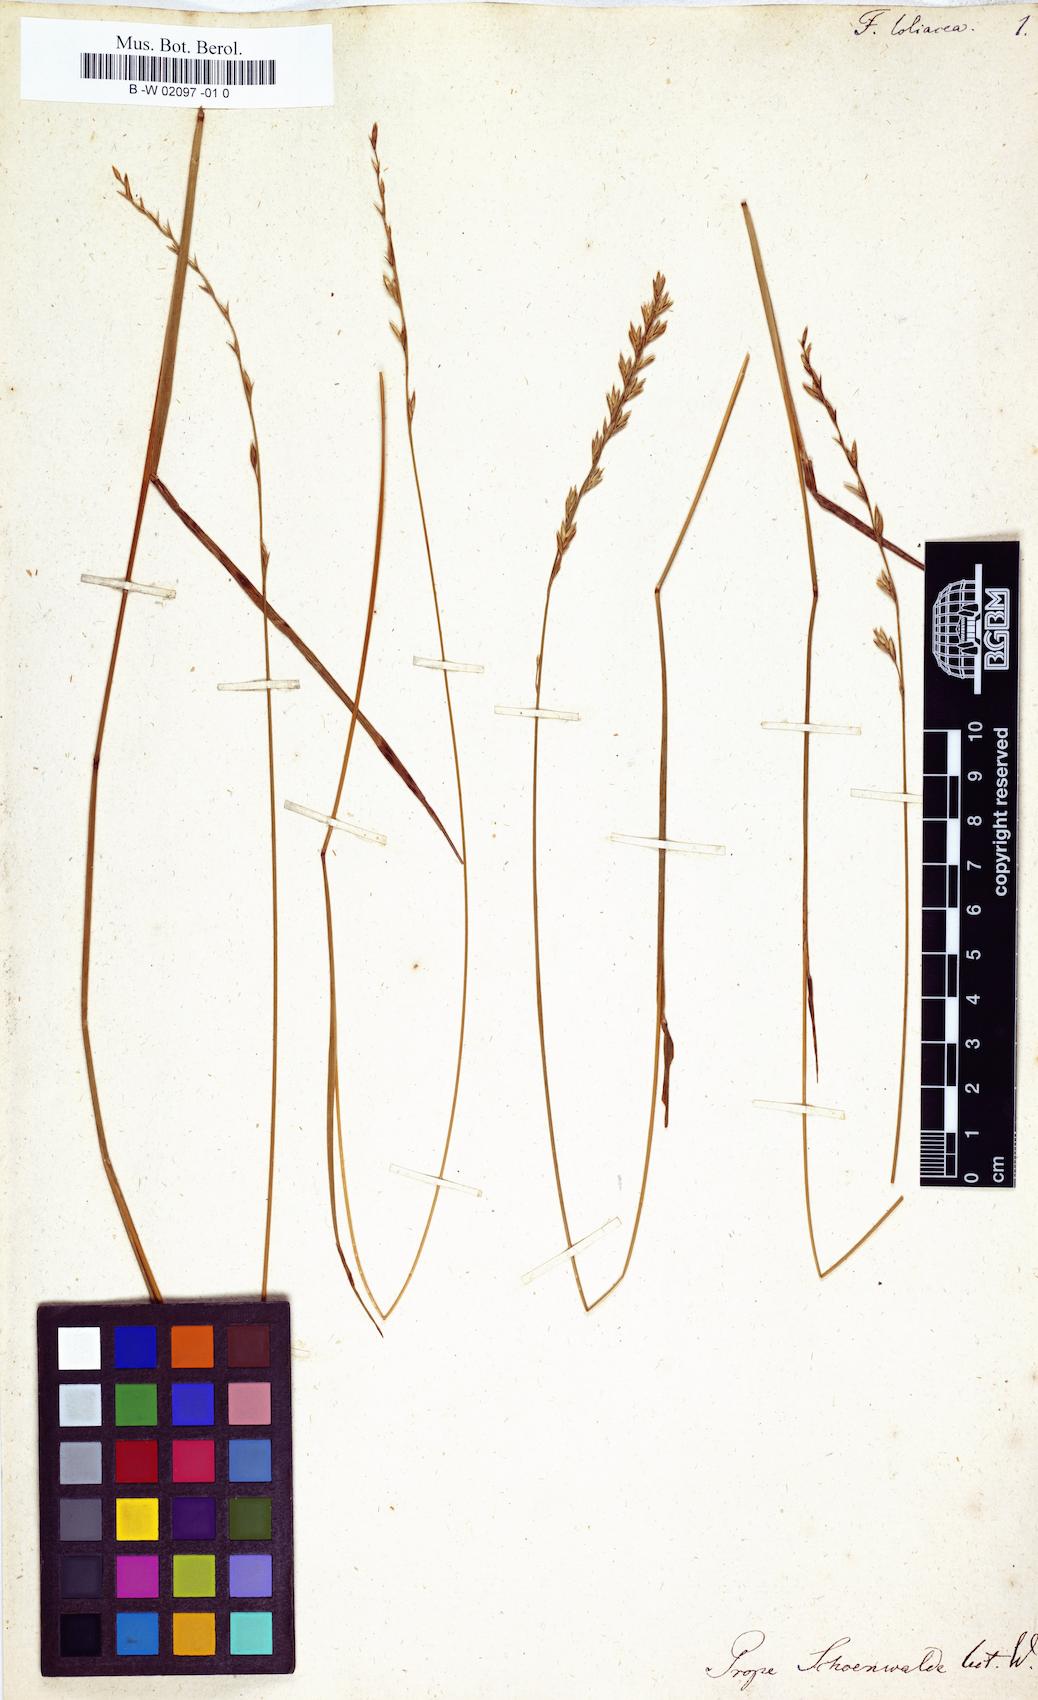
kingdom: Plantae
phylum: Tracheophyta
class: Liliopsida
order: Poales
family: Poaceae
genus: Lolium
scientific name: Lolium elongatum
